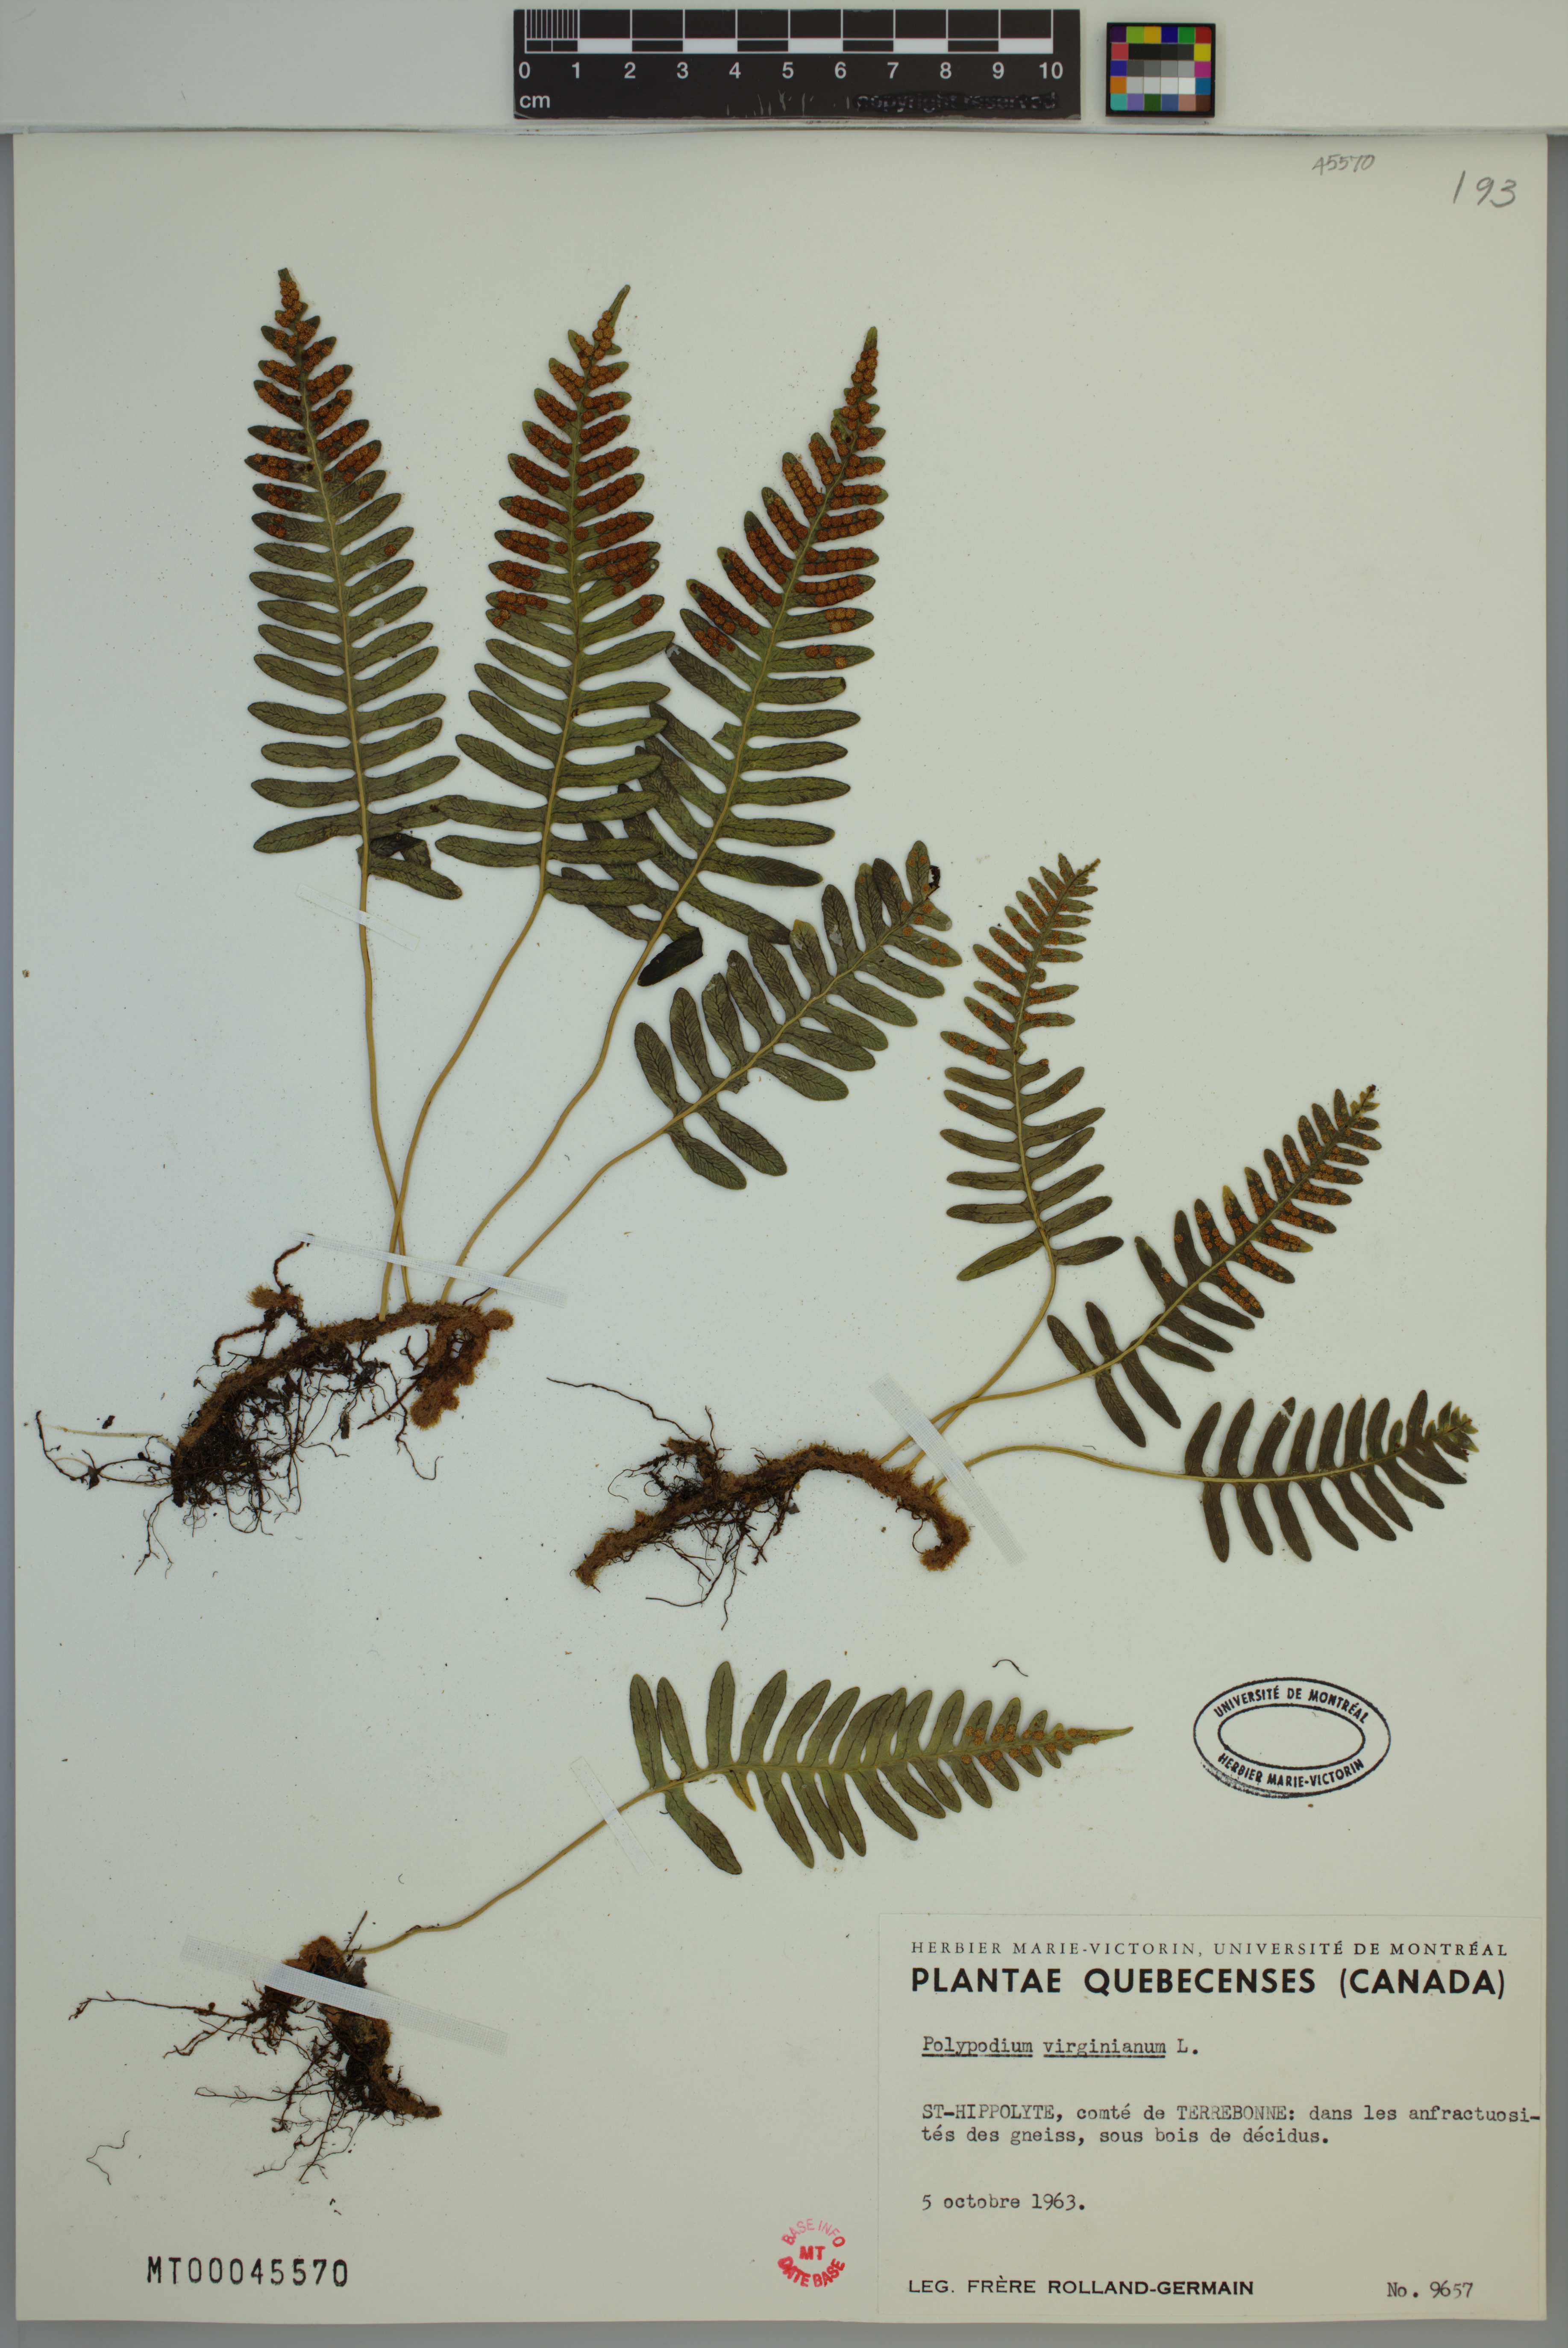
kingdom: Plantae
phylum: Tracheophyta
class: Polypodiopsida
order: Polypodiales
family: Polypodiaceae
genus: Polypodium
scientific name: Polypodium virginianum
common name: American wall fern
